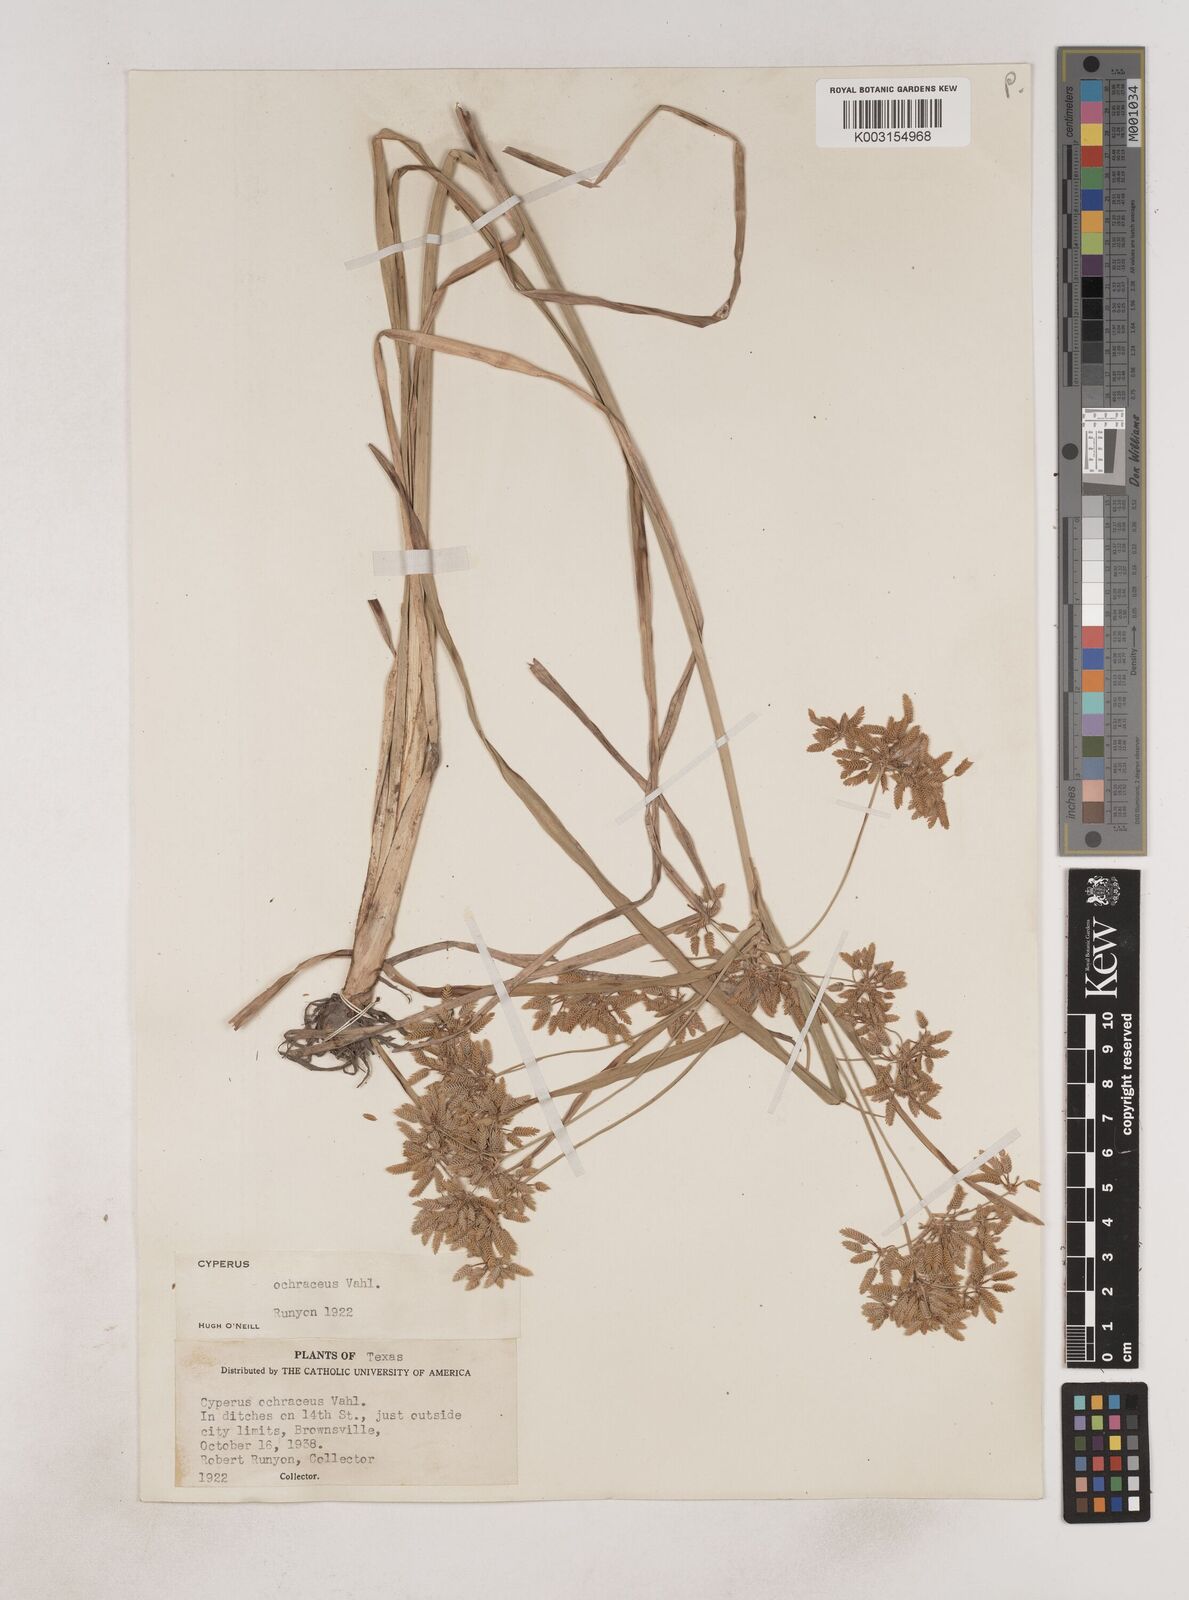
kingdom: Plantae
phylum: Tracheophyta
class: Liliopsida
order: Poales
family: Cyperaceae
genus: Cyperus
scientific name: Cyperus ochraceus
